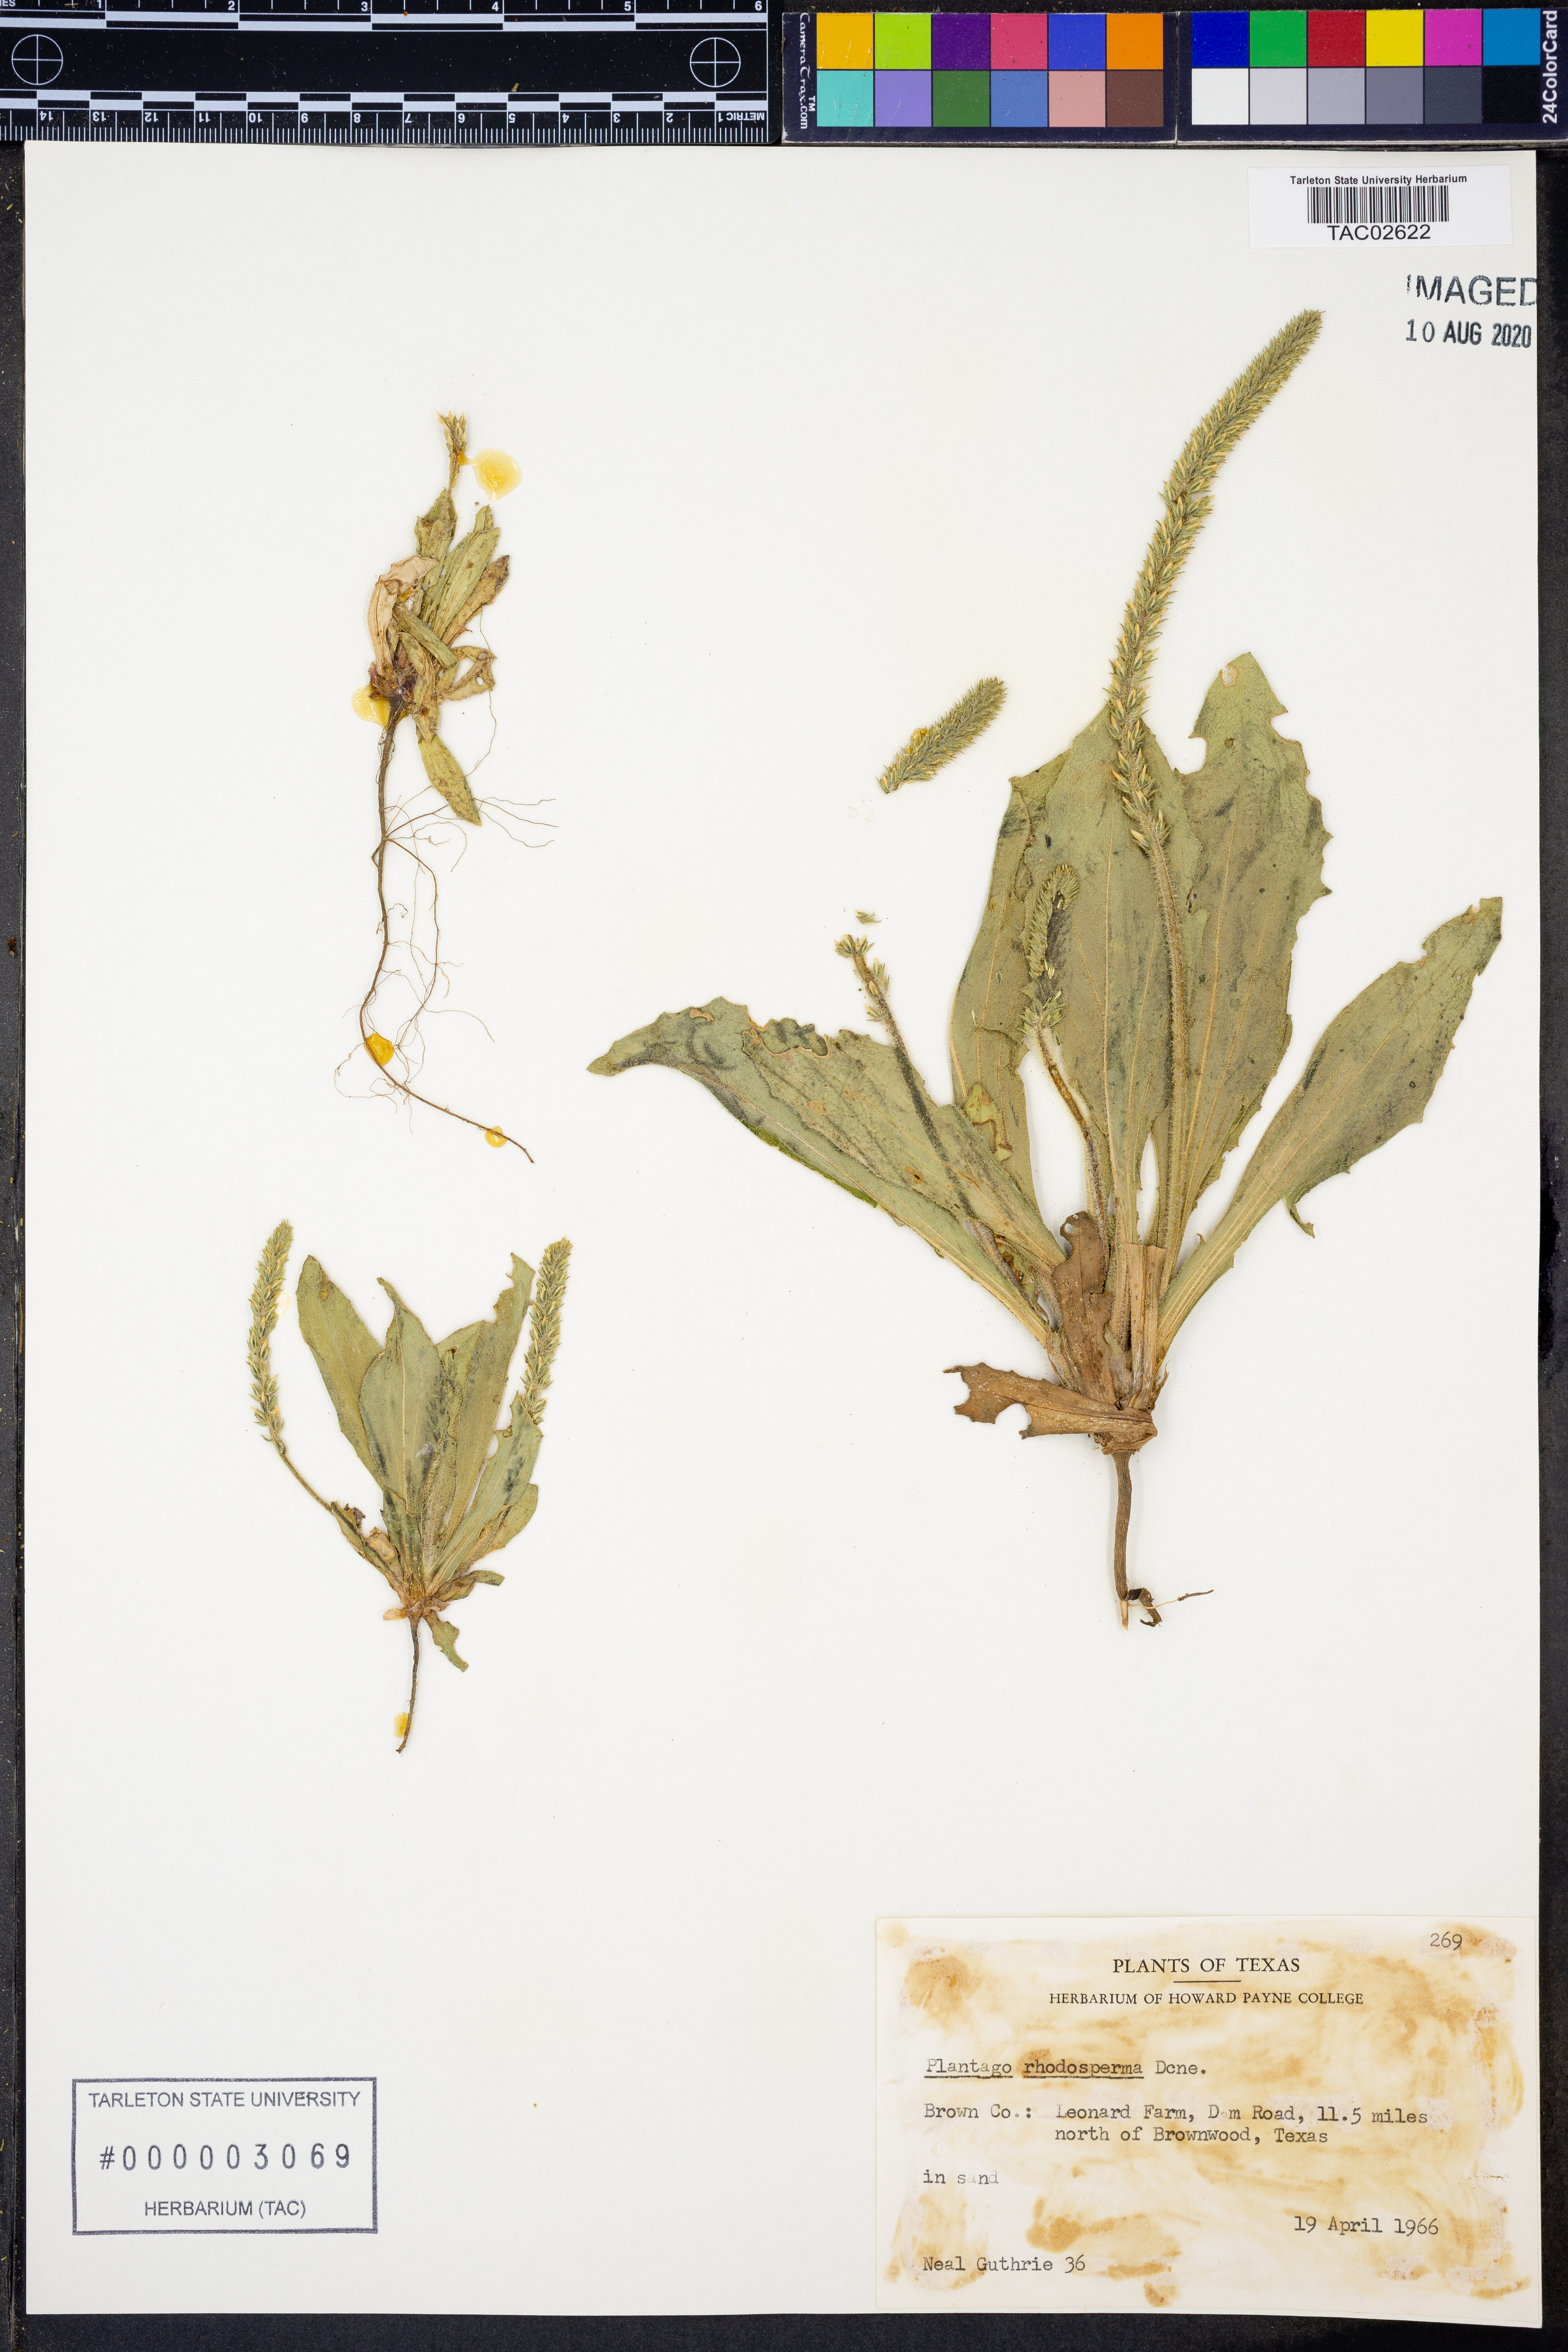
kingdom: Plantae
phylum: Tracheophyta
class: Magnoliopsida
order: Lamiales
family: Plantaginaceae
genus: Plantago
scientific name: Plantago rhodosperma
